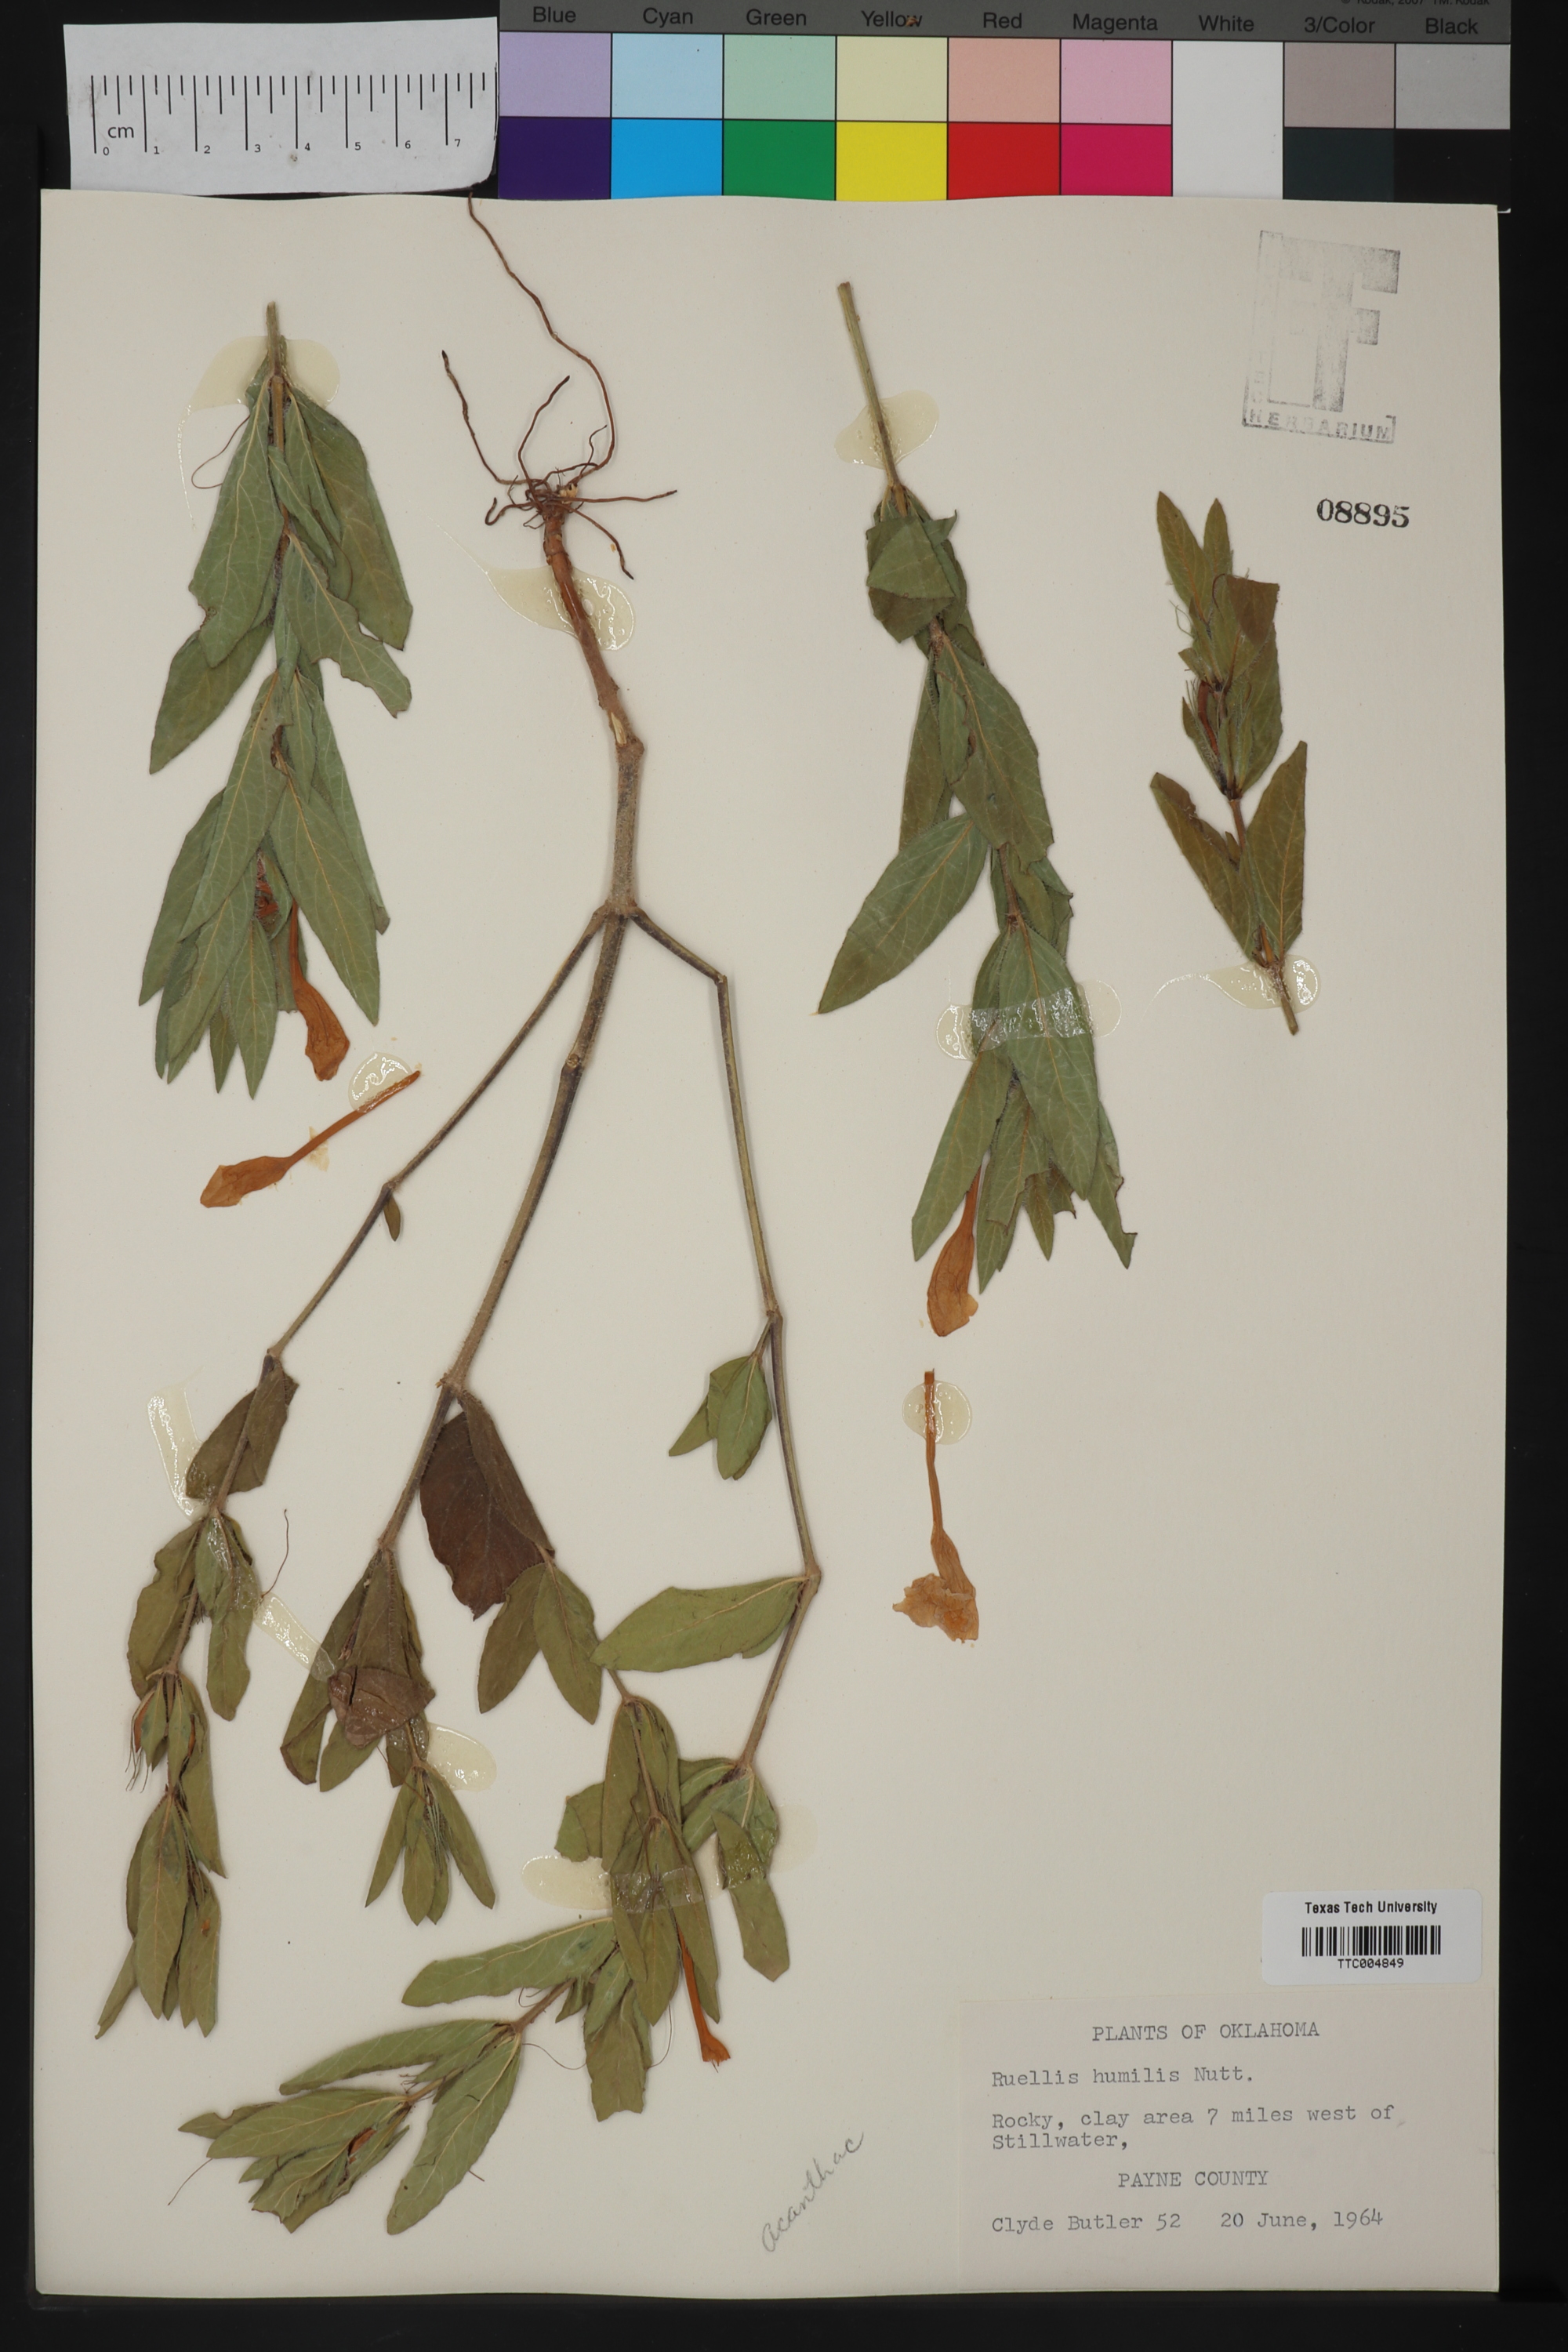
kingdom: Plantae
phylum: Tracheophyta
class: Magnoliopsida
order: Lamiales
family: Acanthaceae
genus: Ruellia
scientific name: Ruellia humilis
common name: Fringe-leaf ruellia
